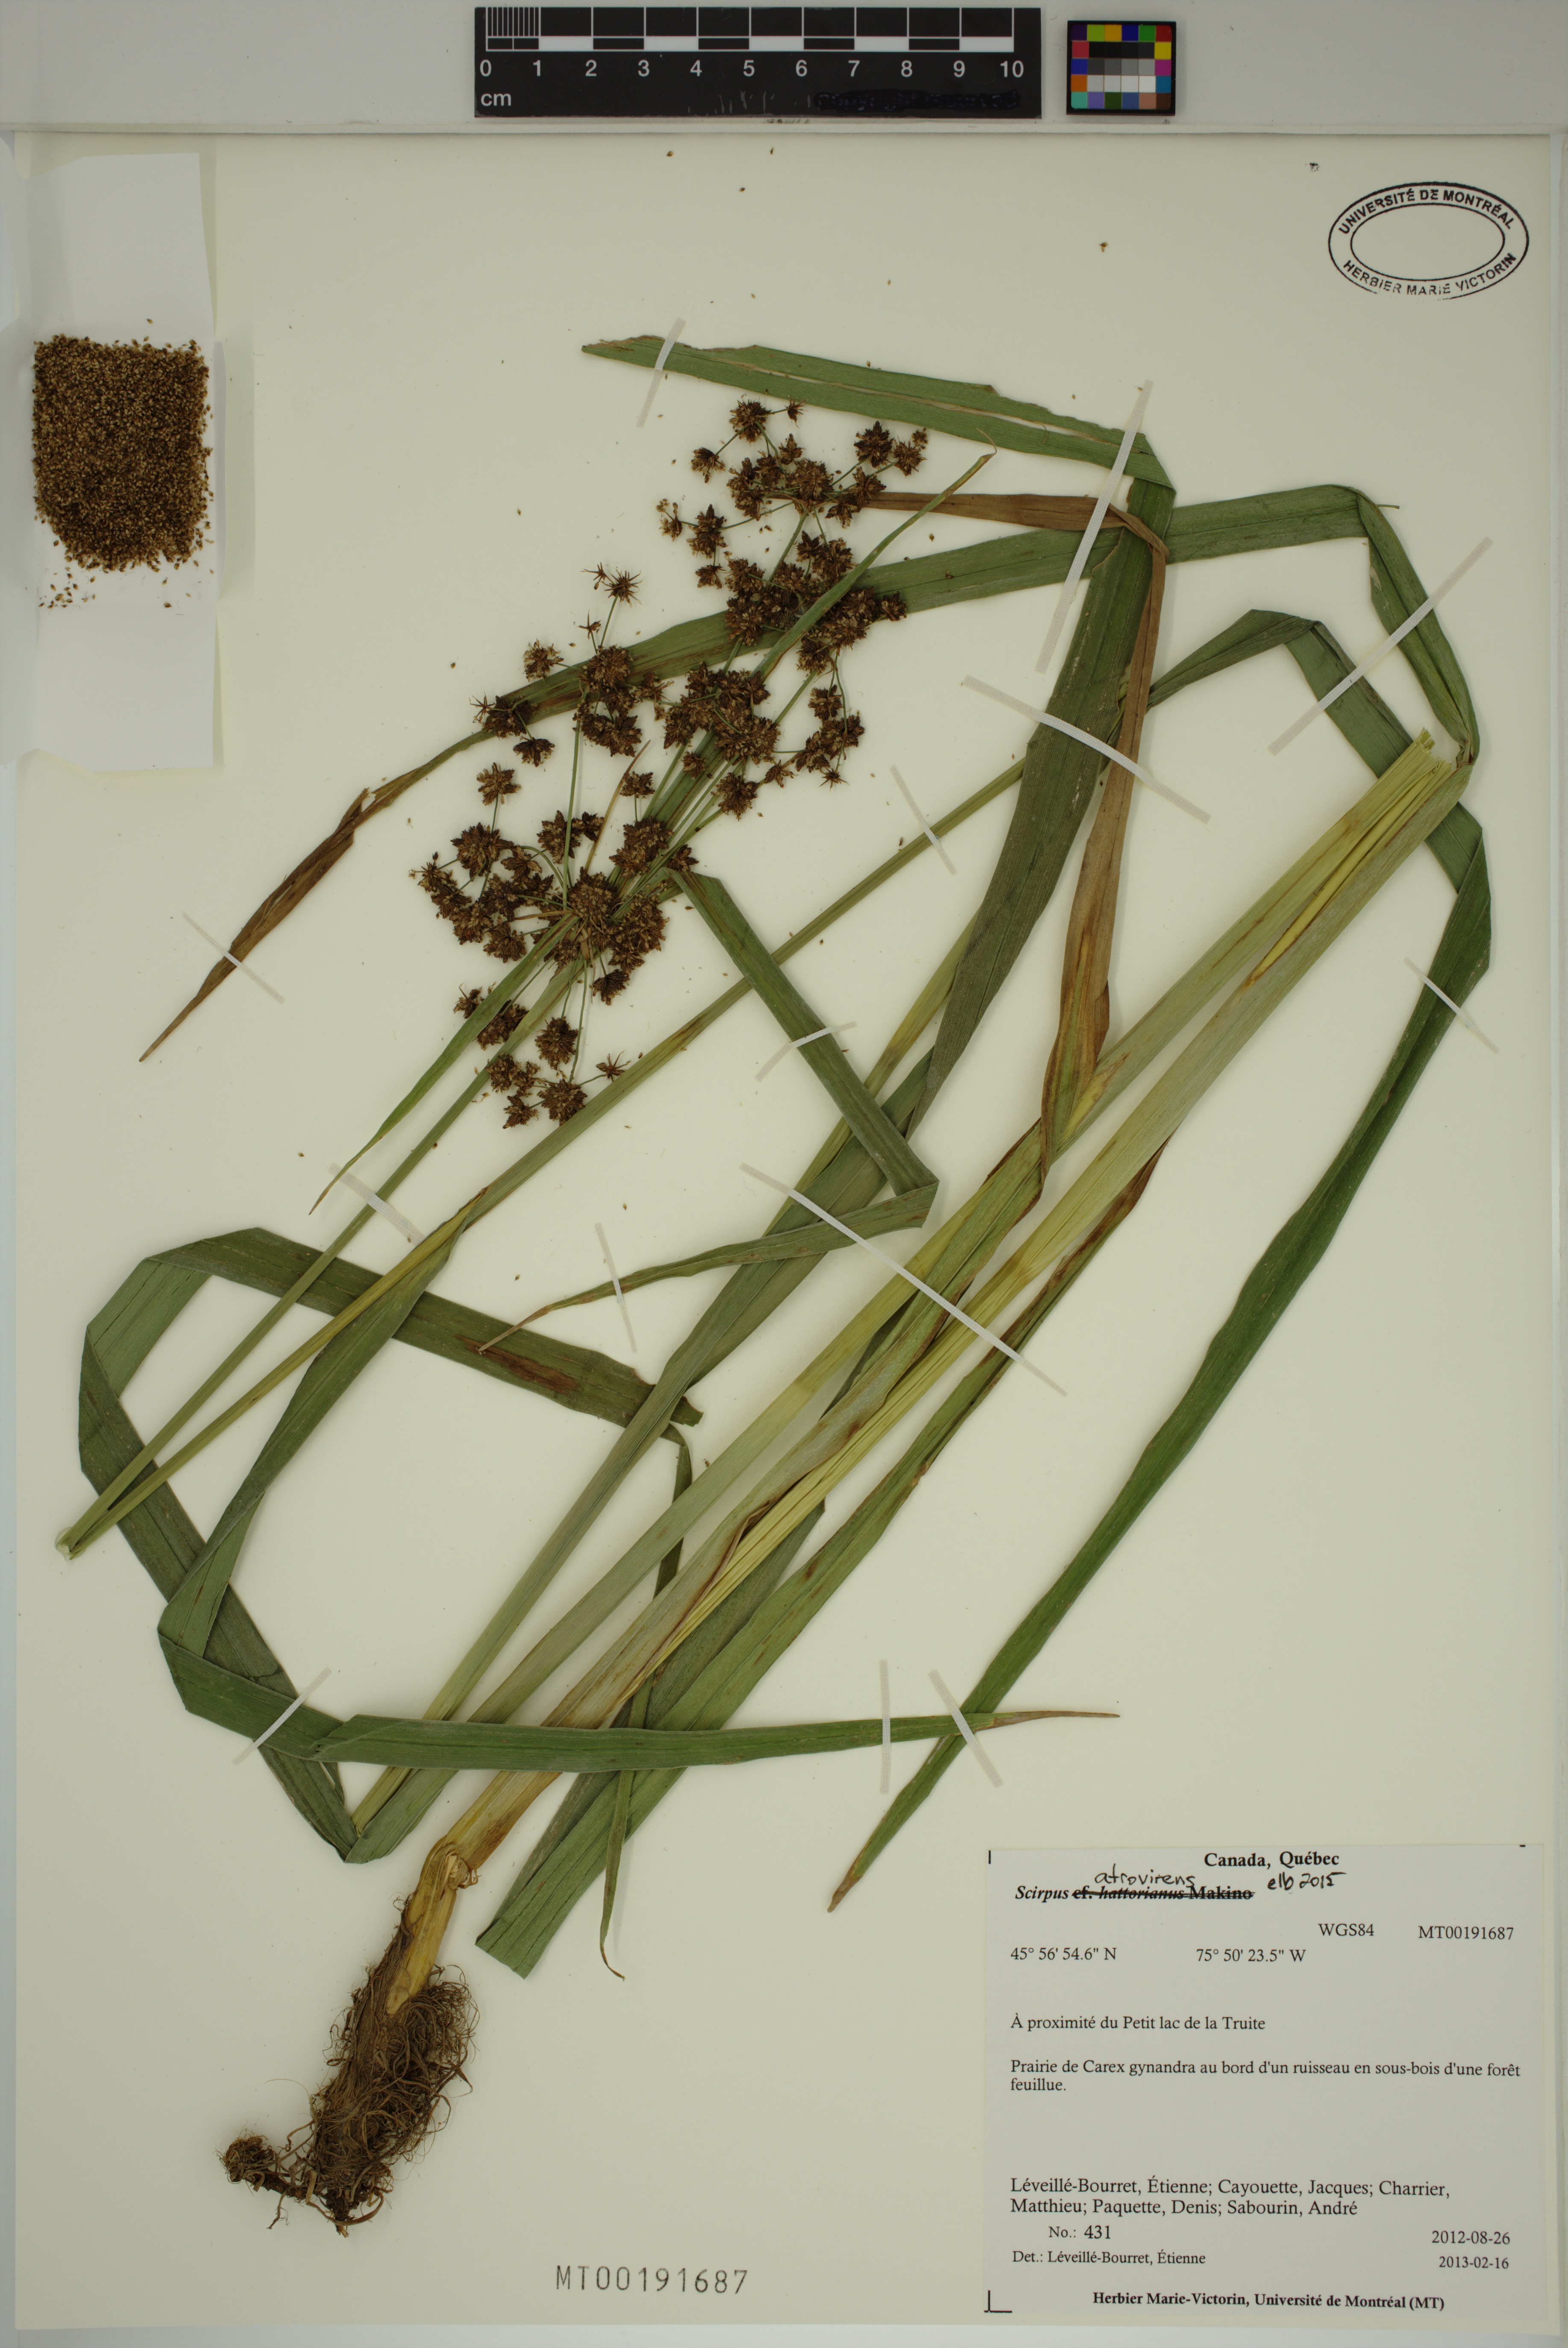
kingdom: Plantae
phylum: Tracheophyta
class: Liliopsida
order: Poales
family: Cyperaceae
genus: Scirpus
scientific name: Scirpus atrovirens
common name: Black bulrush
